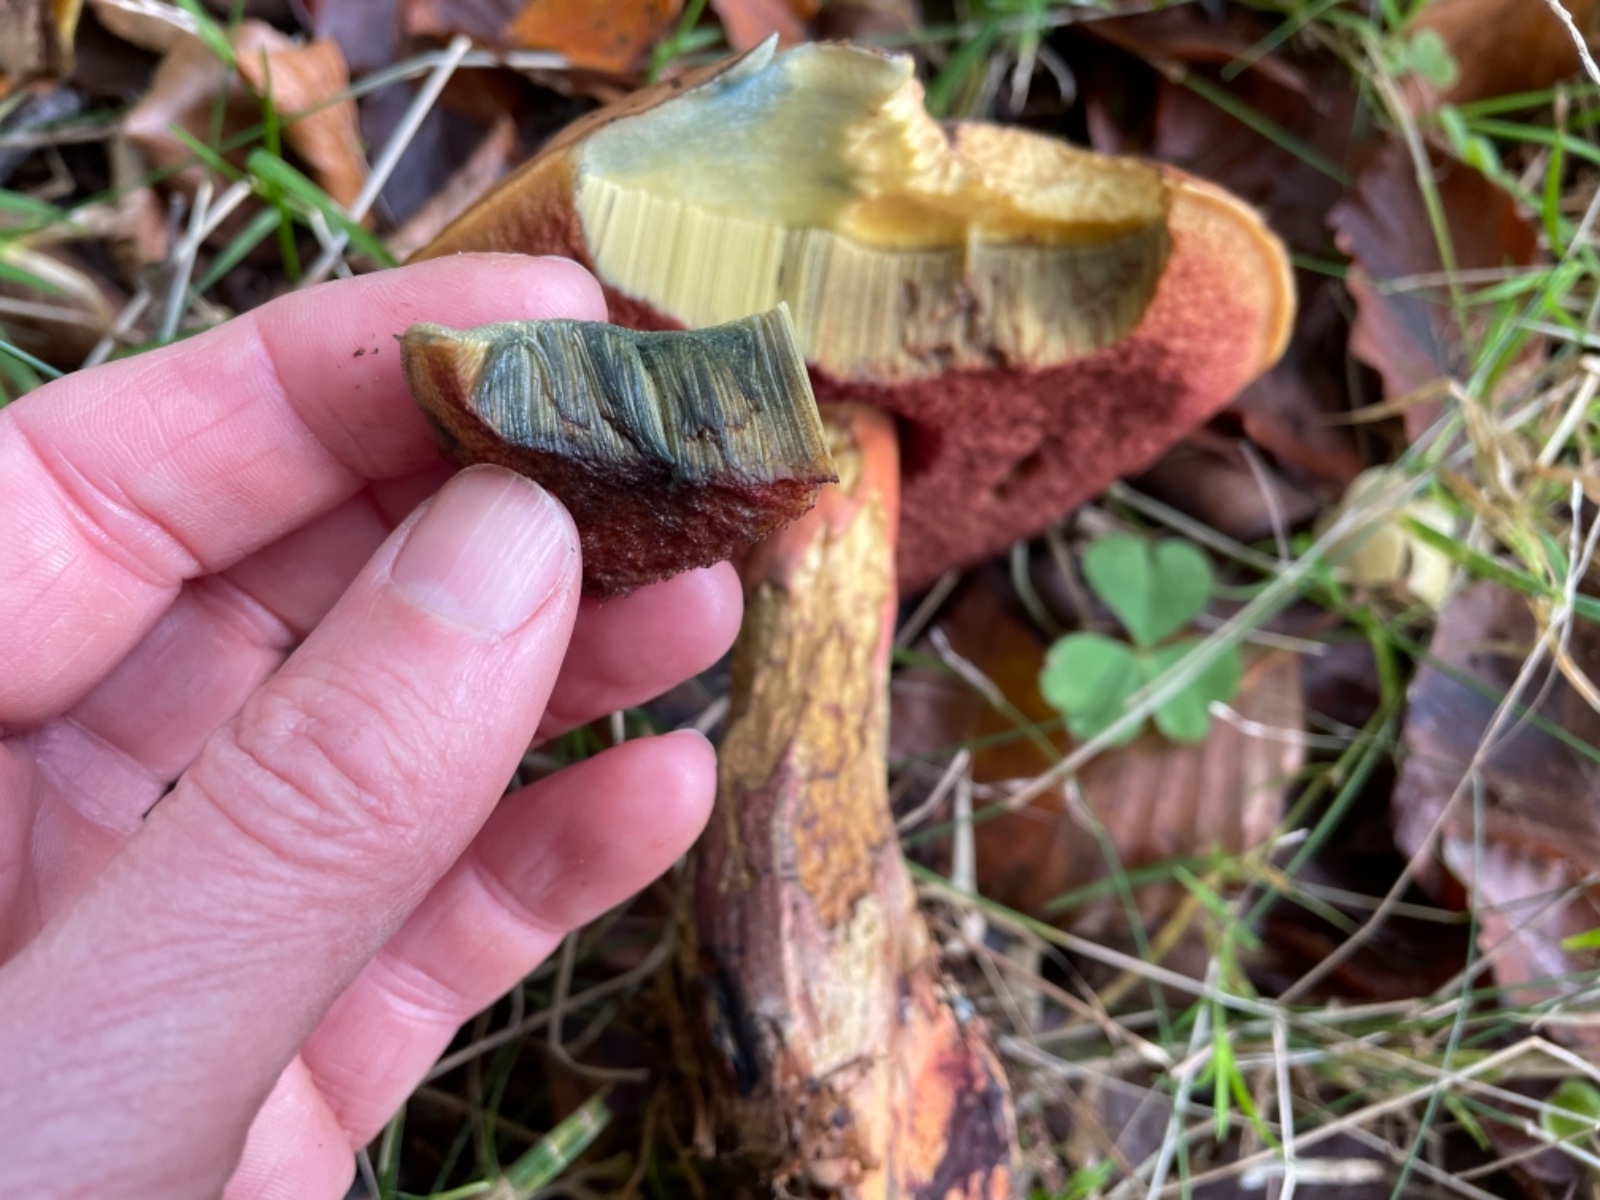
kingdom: Fungi
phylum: Basidiomycota
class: Agaricomycetes
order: Boletales
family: Boletaceae
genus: Neoboletus
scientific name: Neoboletus erythropus
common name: punktstokket indigorørhat
